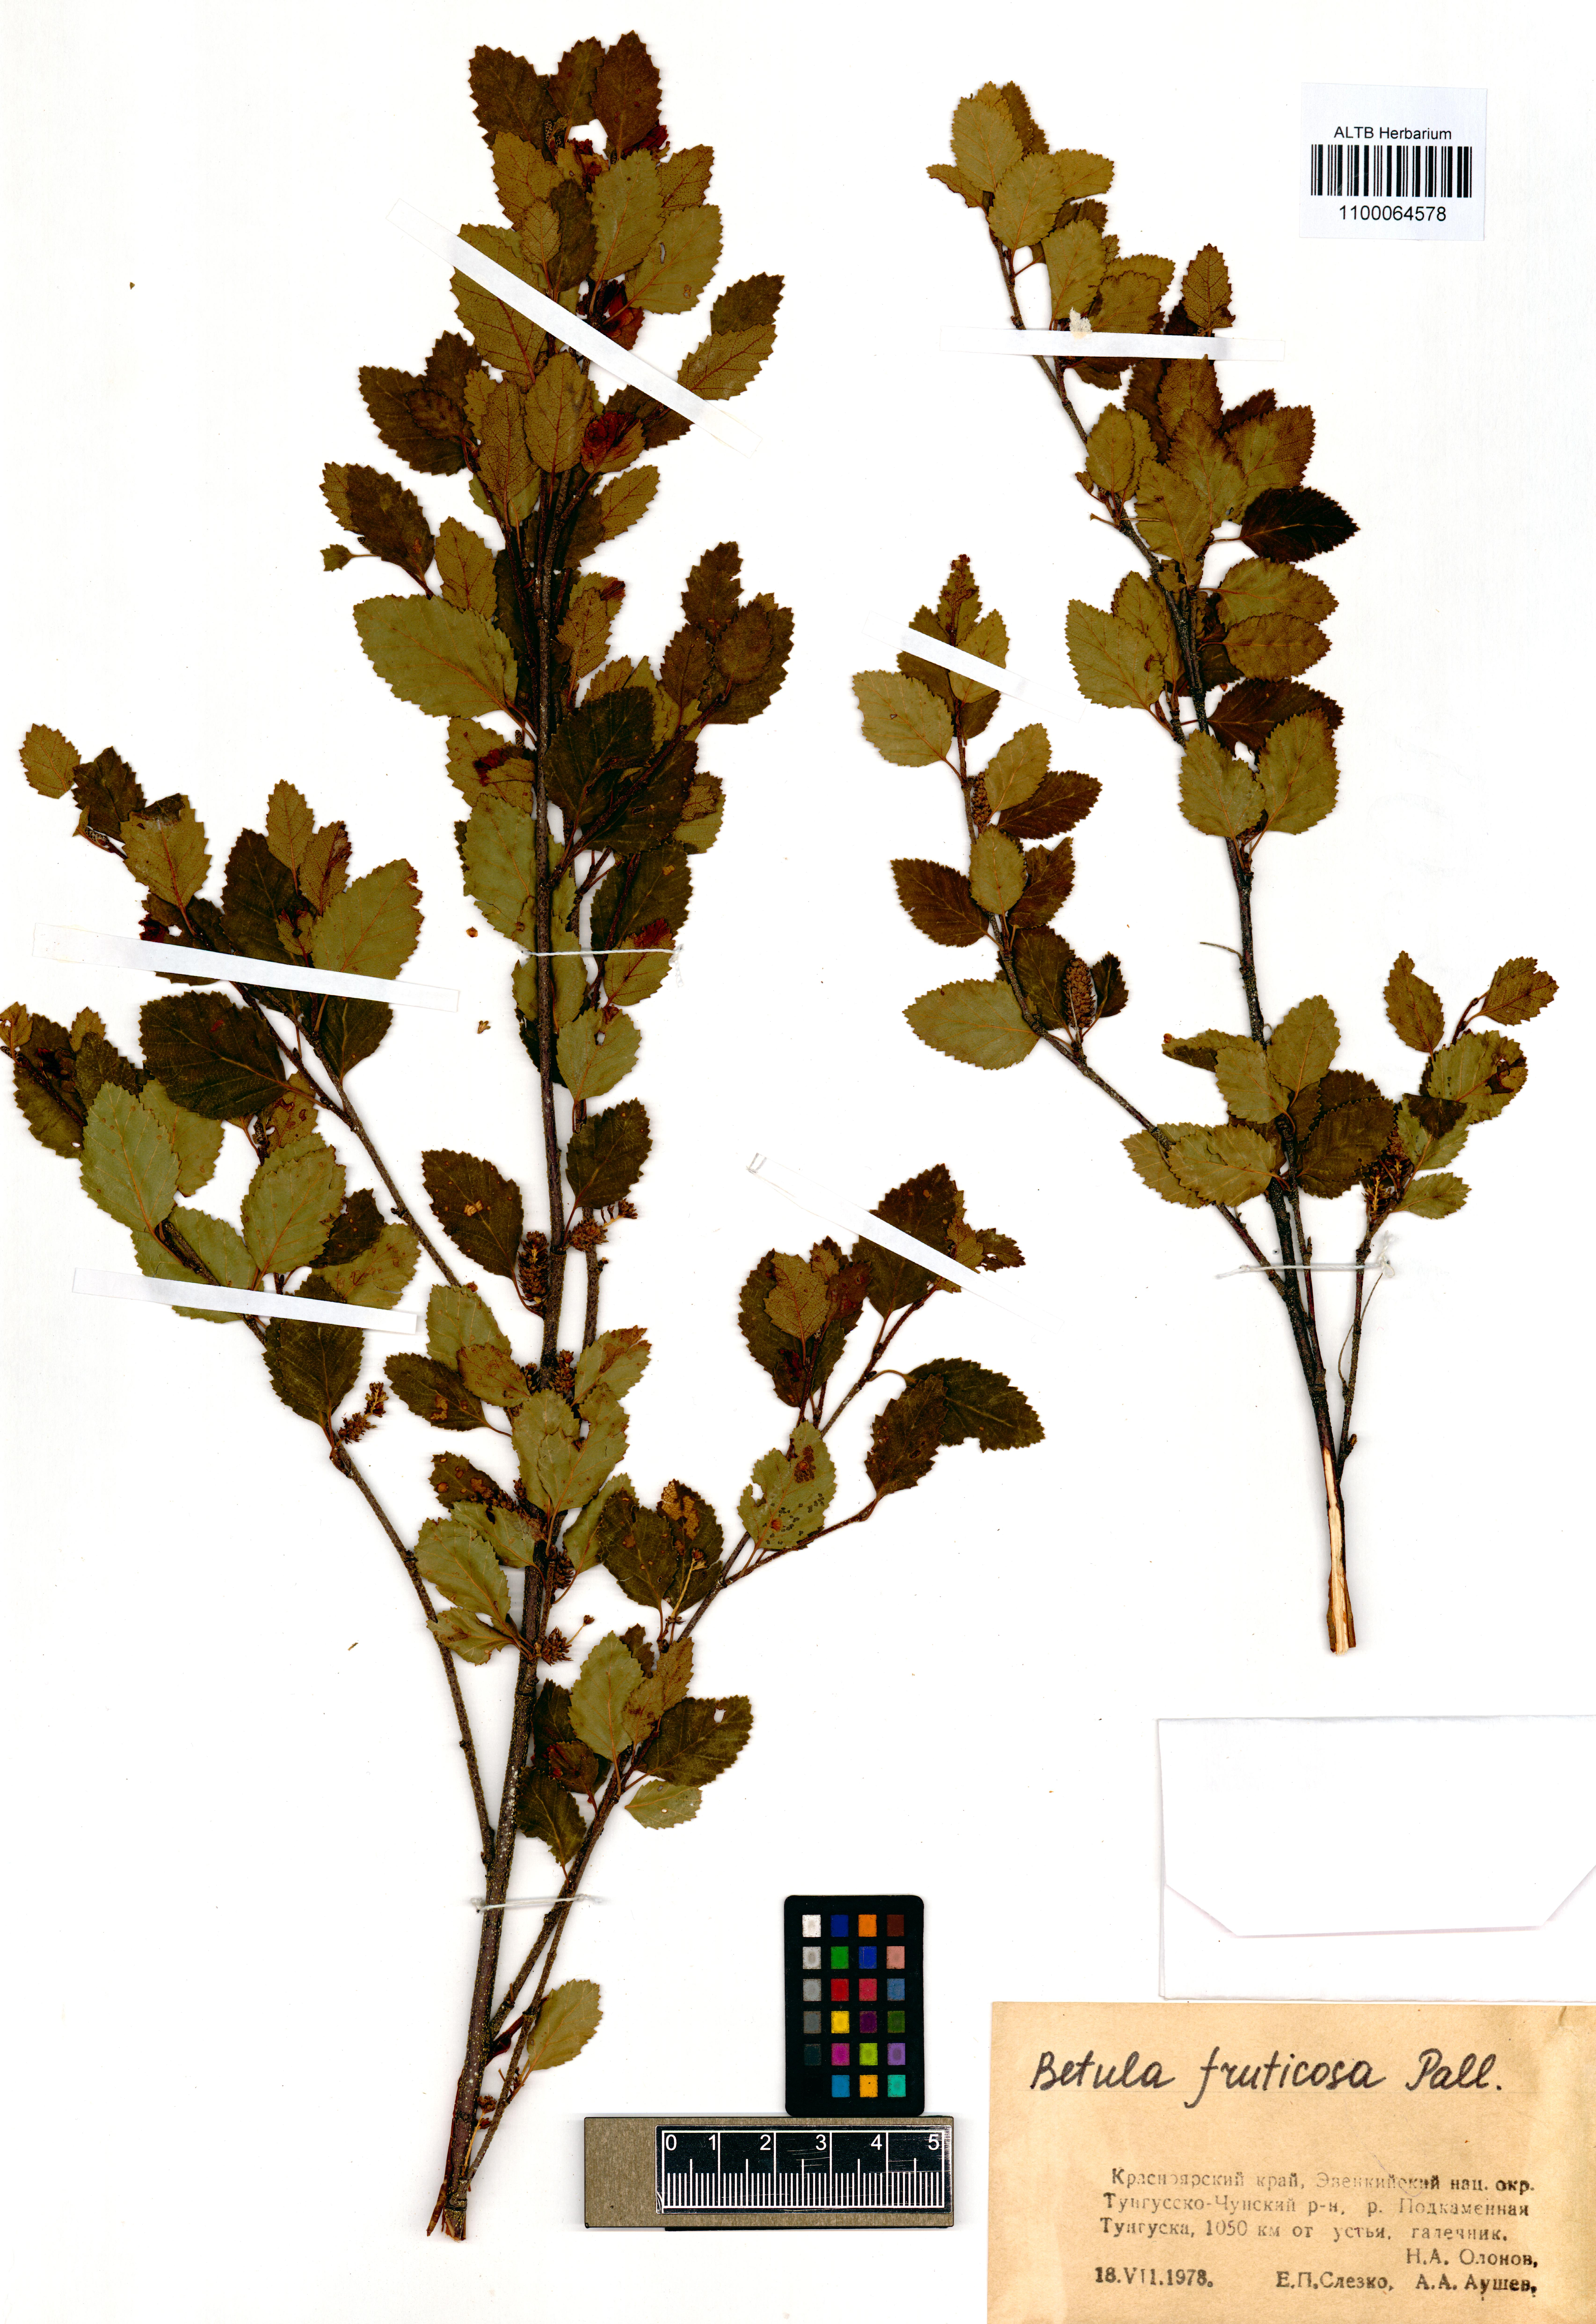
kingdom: Plantae
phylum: Tracheophyta
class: Magnoliopsida
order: Fagales
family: Betulaceae
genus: Betula
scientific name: Betula fruticosa
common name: Japanese bog birch
